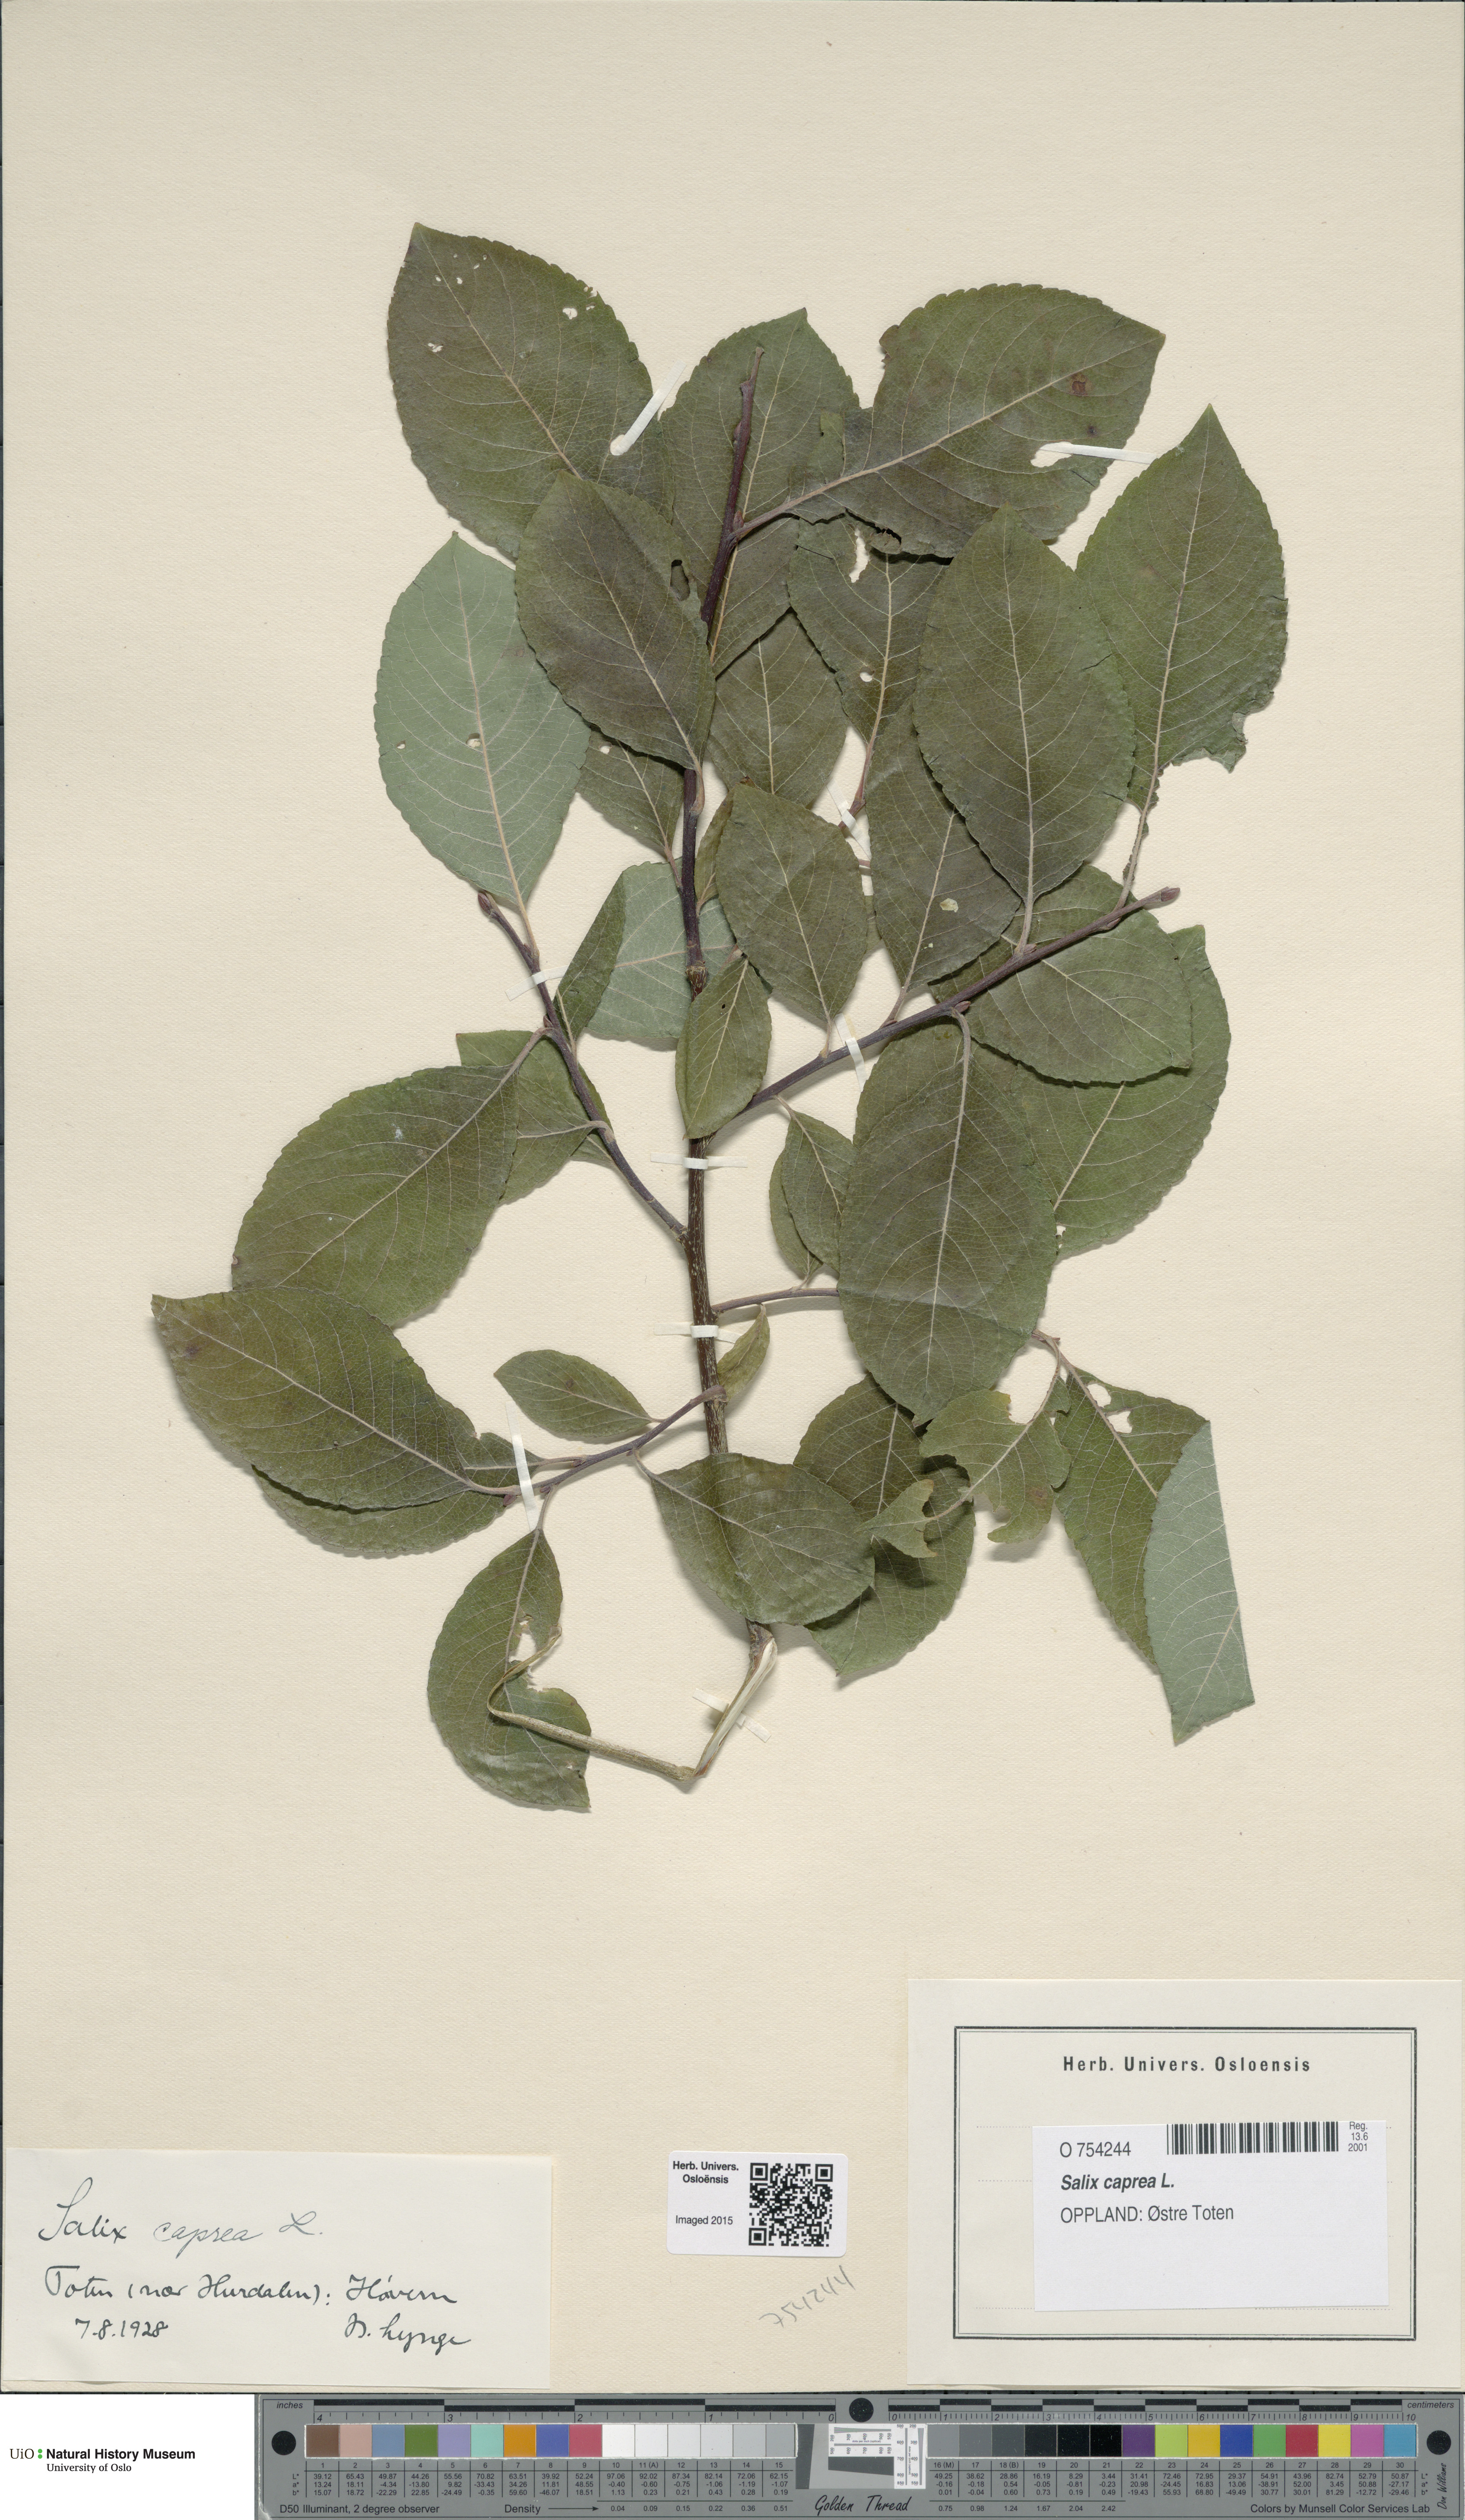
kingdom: Plantae
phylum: Tracheophyta
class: Magnoliopsida
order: Malpighiales
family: Salicaceae
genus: Salix
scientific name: Salix caprea
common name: Goat willow
